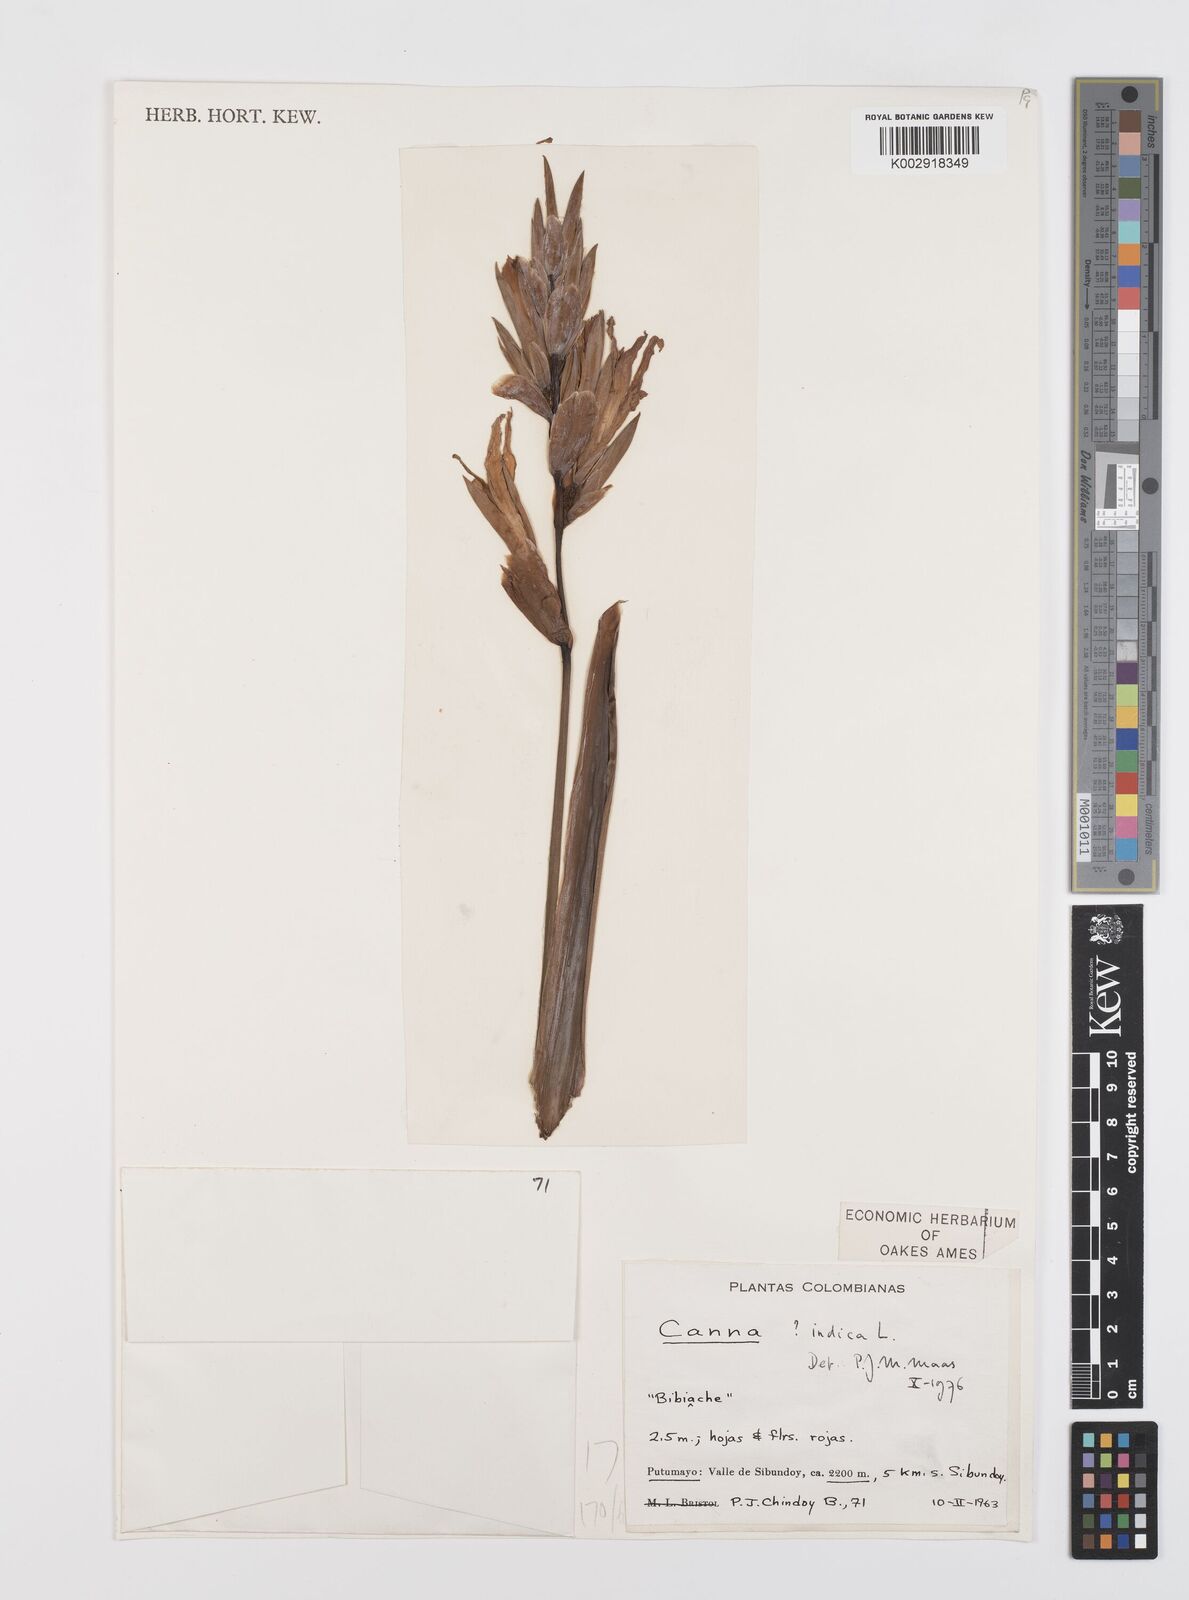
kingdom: Plantae
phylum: Tracheophyta
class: Liliopsida
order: Zingiberales
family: Cannaceae
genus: Canna
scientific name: Canna indica
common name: Indian shot
